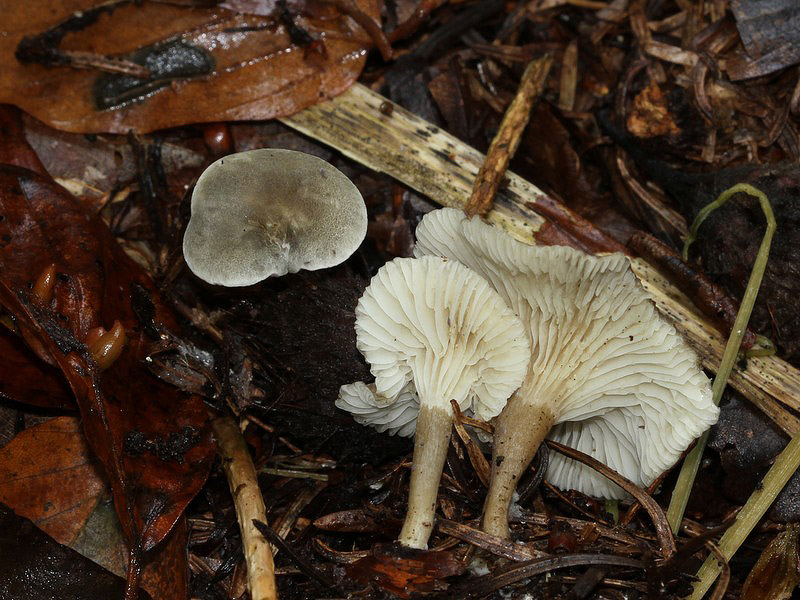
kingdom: Fungi
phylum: Basidiomycota
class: Agaricomycetes
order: Agaricales
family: Hygrophoraceae
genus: Spodocybe
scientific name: Spodocybe trulliformis
